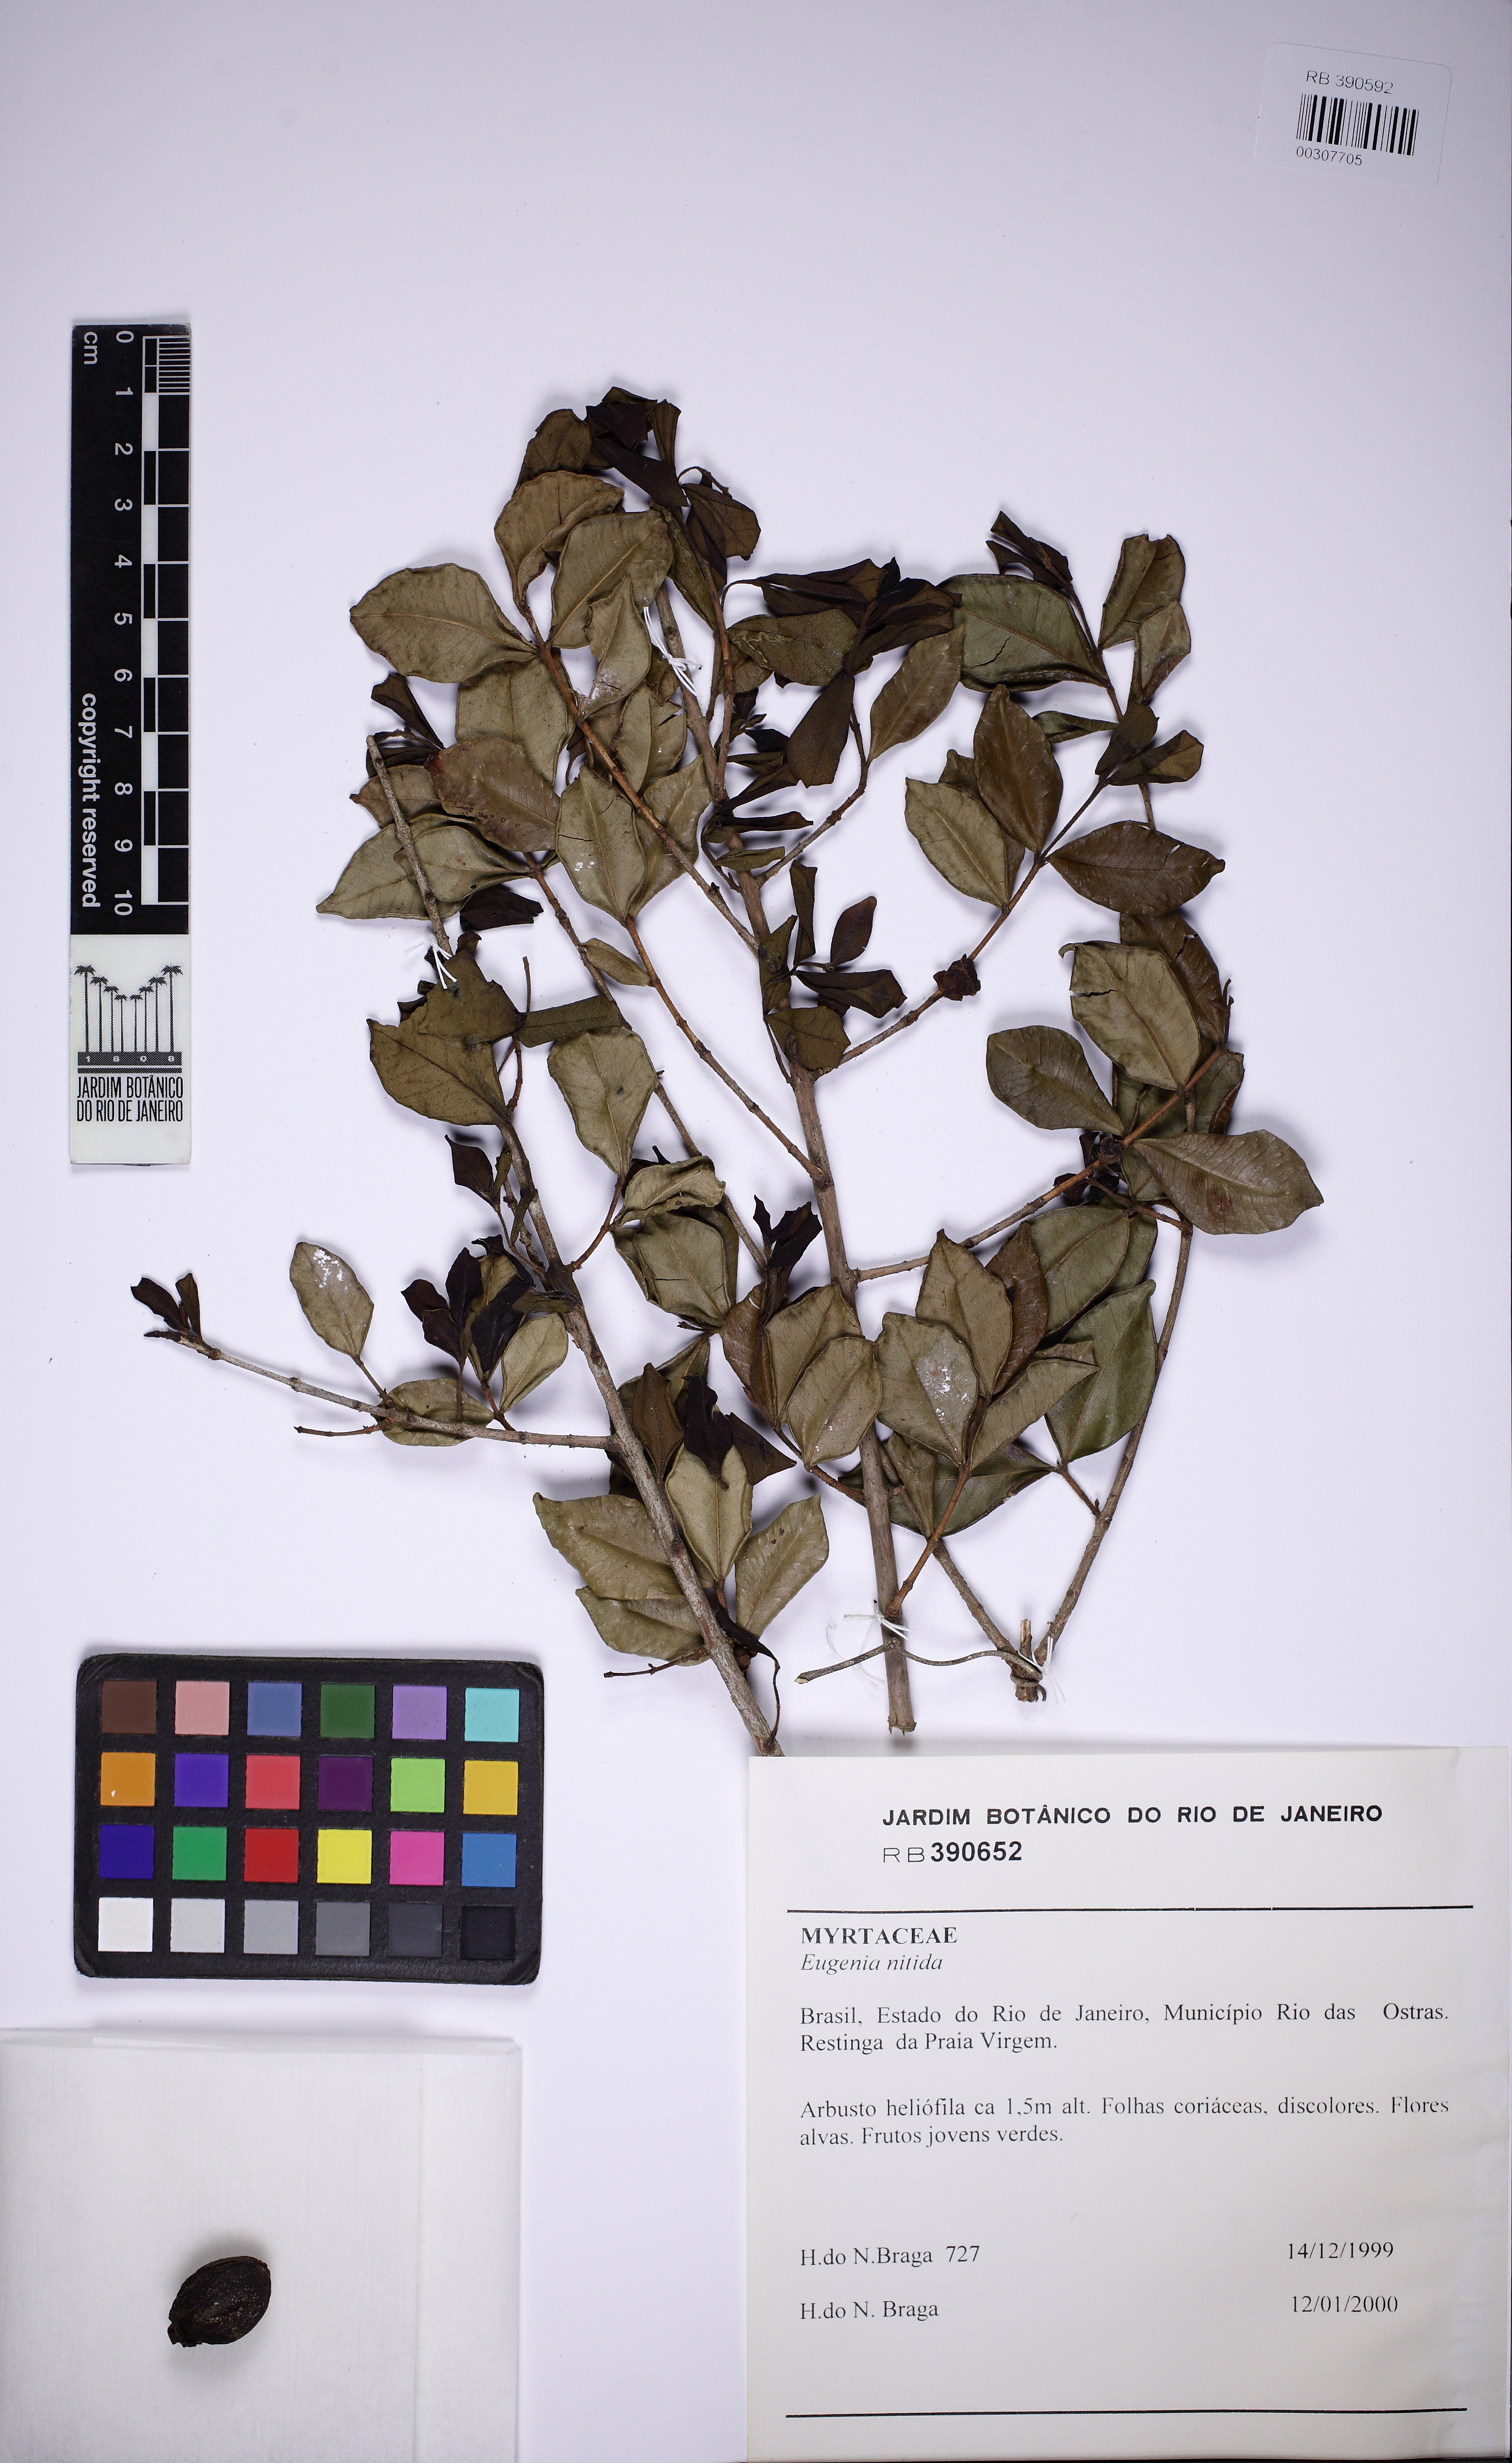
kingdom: Plantae
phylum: Tracheophyta
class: Magnoliopsida
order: Myrtales
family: Myrtaceae
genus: Eugenia
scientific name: Eugenia selloi
